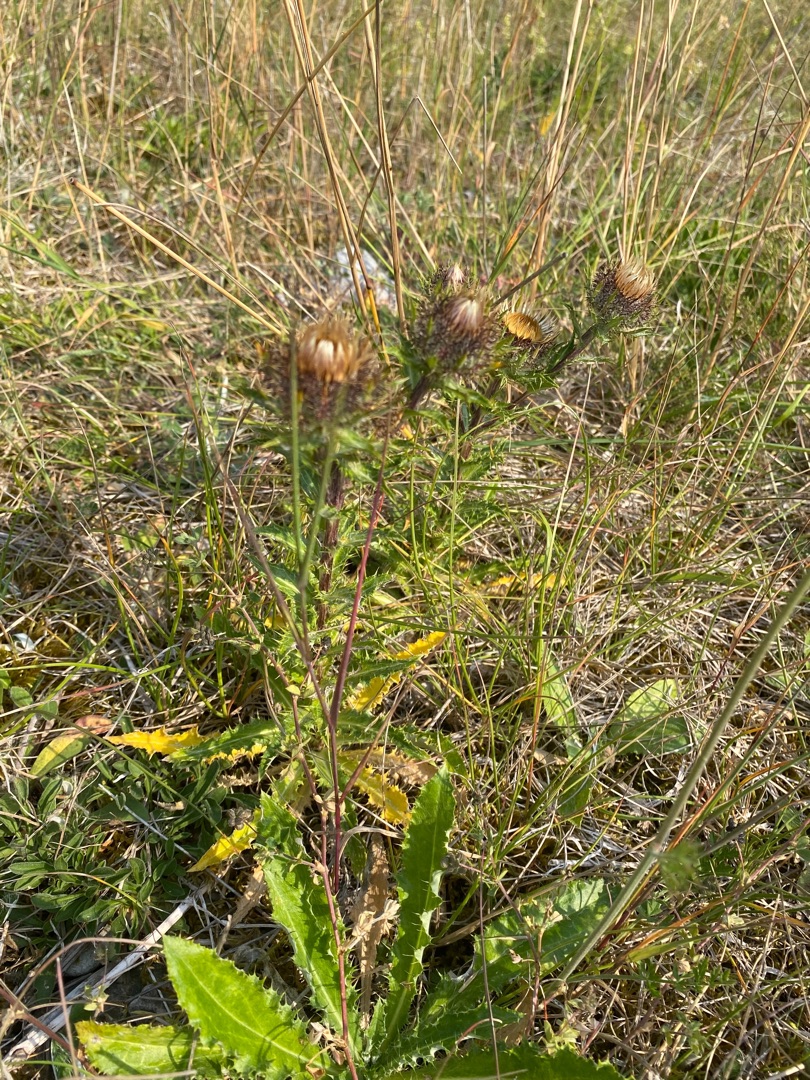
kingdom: Plantae
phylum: Tracheophyta
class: Magnoliopsida
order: Asterales
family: Asteraceae
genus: Carlina
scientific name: Carlina vulgaris
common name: Bakketidsel
